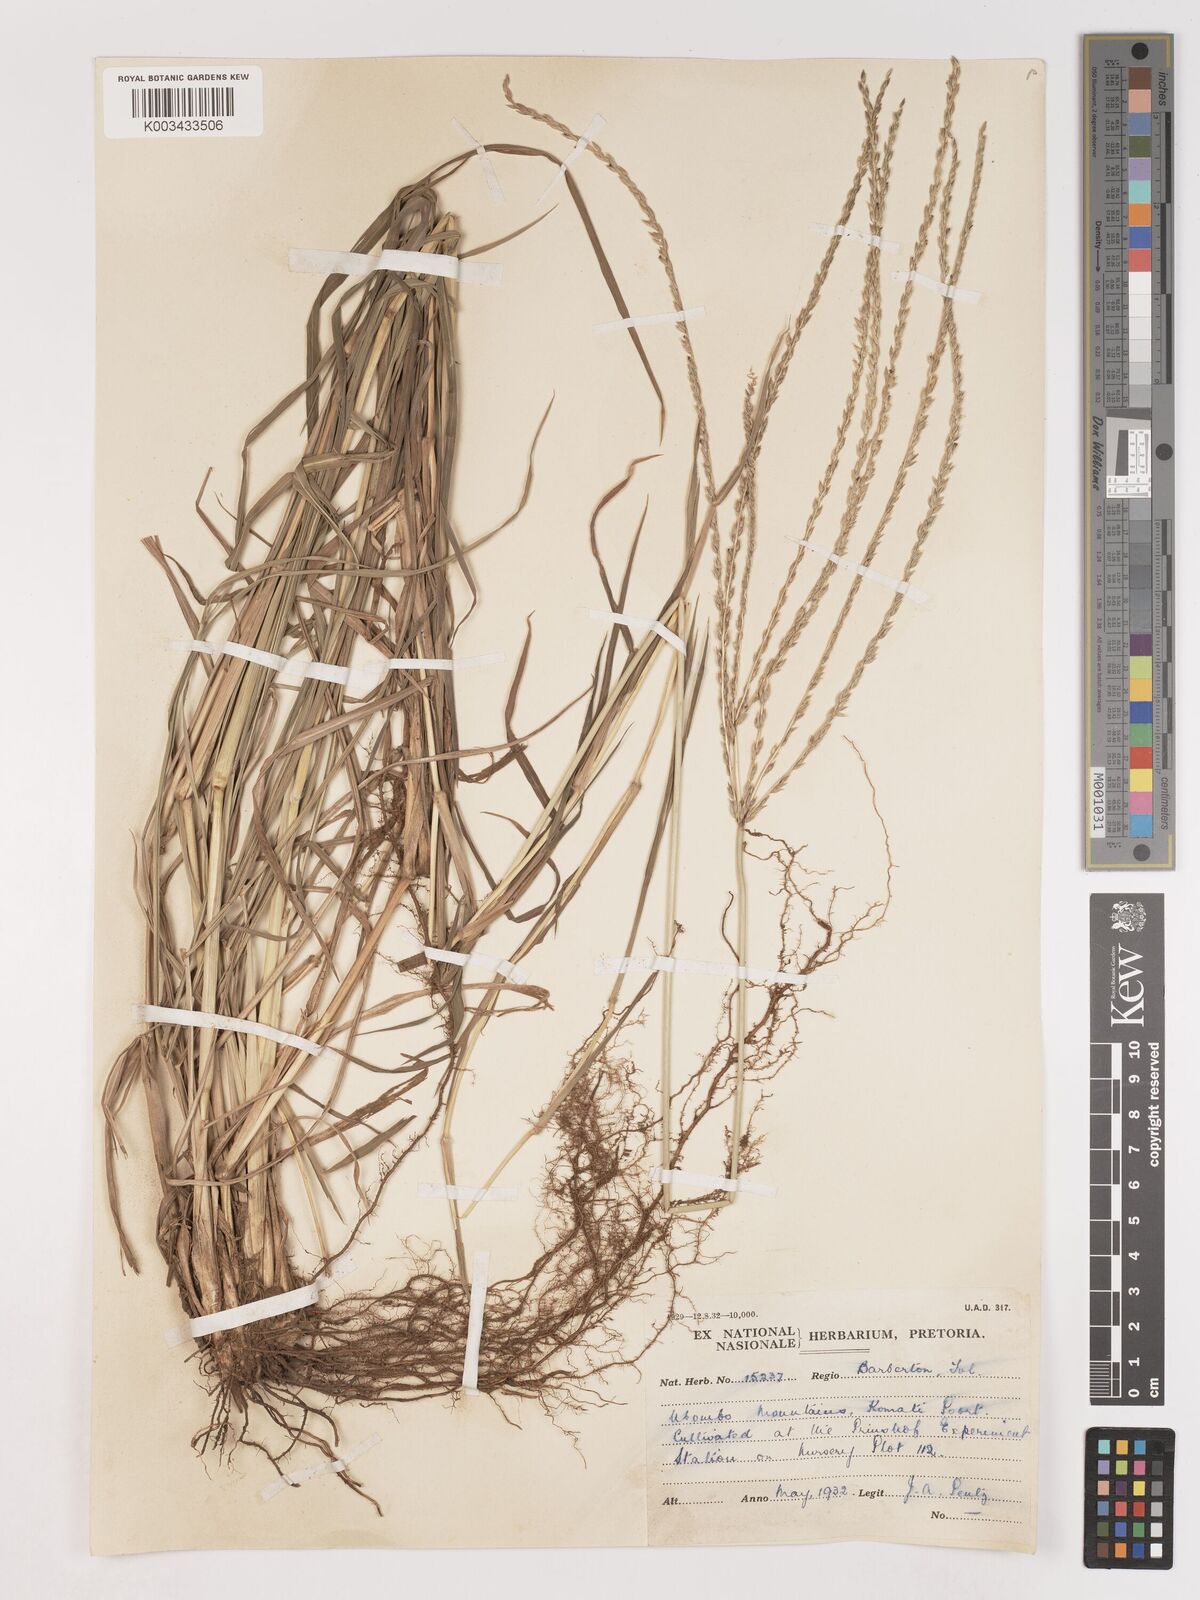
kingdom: Plantae
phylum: Tracheophyta
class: Liliopsida
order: Poales
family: Poaceae
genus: Digitaria
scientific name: Digitaria eriantha
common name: Digitgrass
